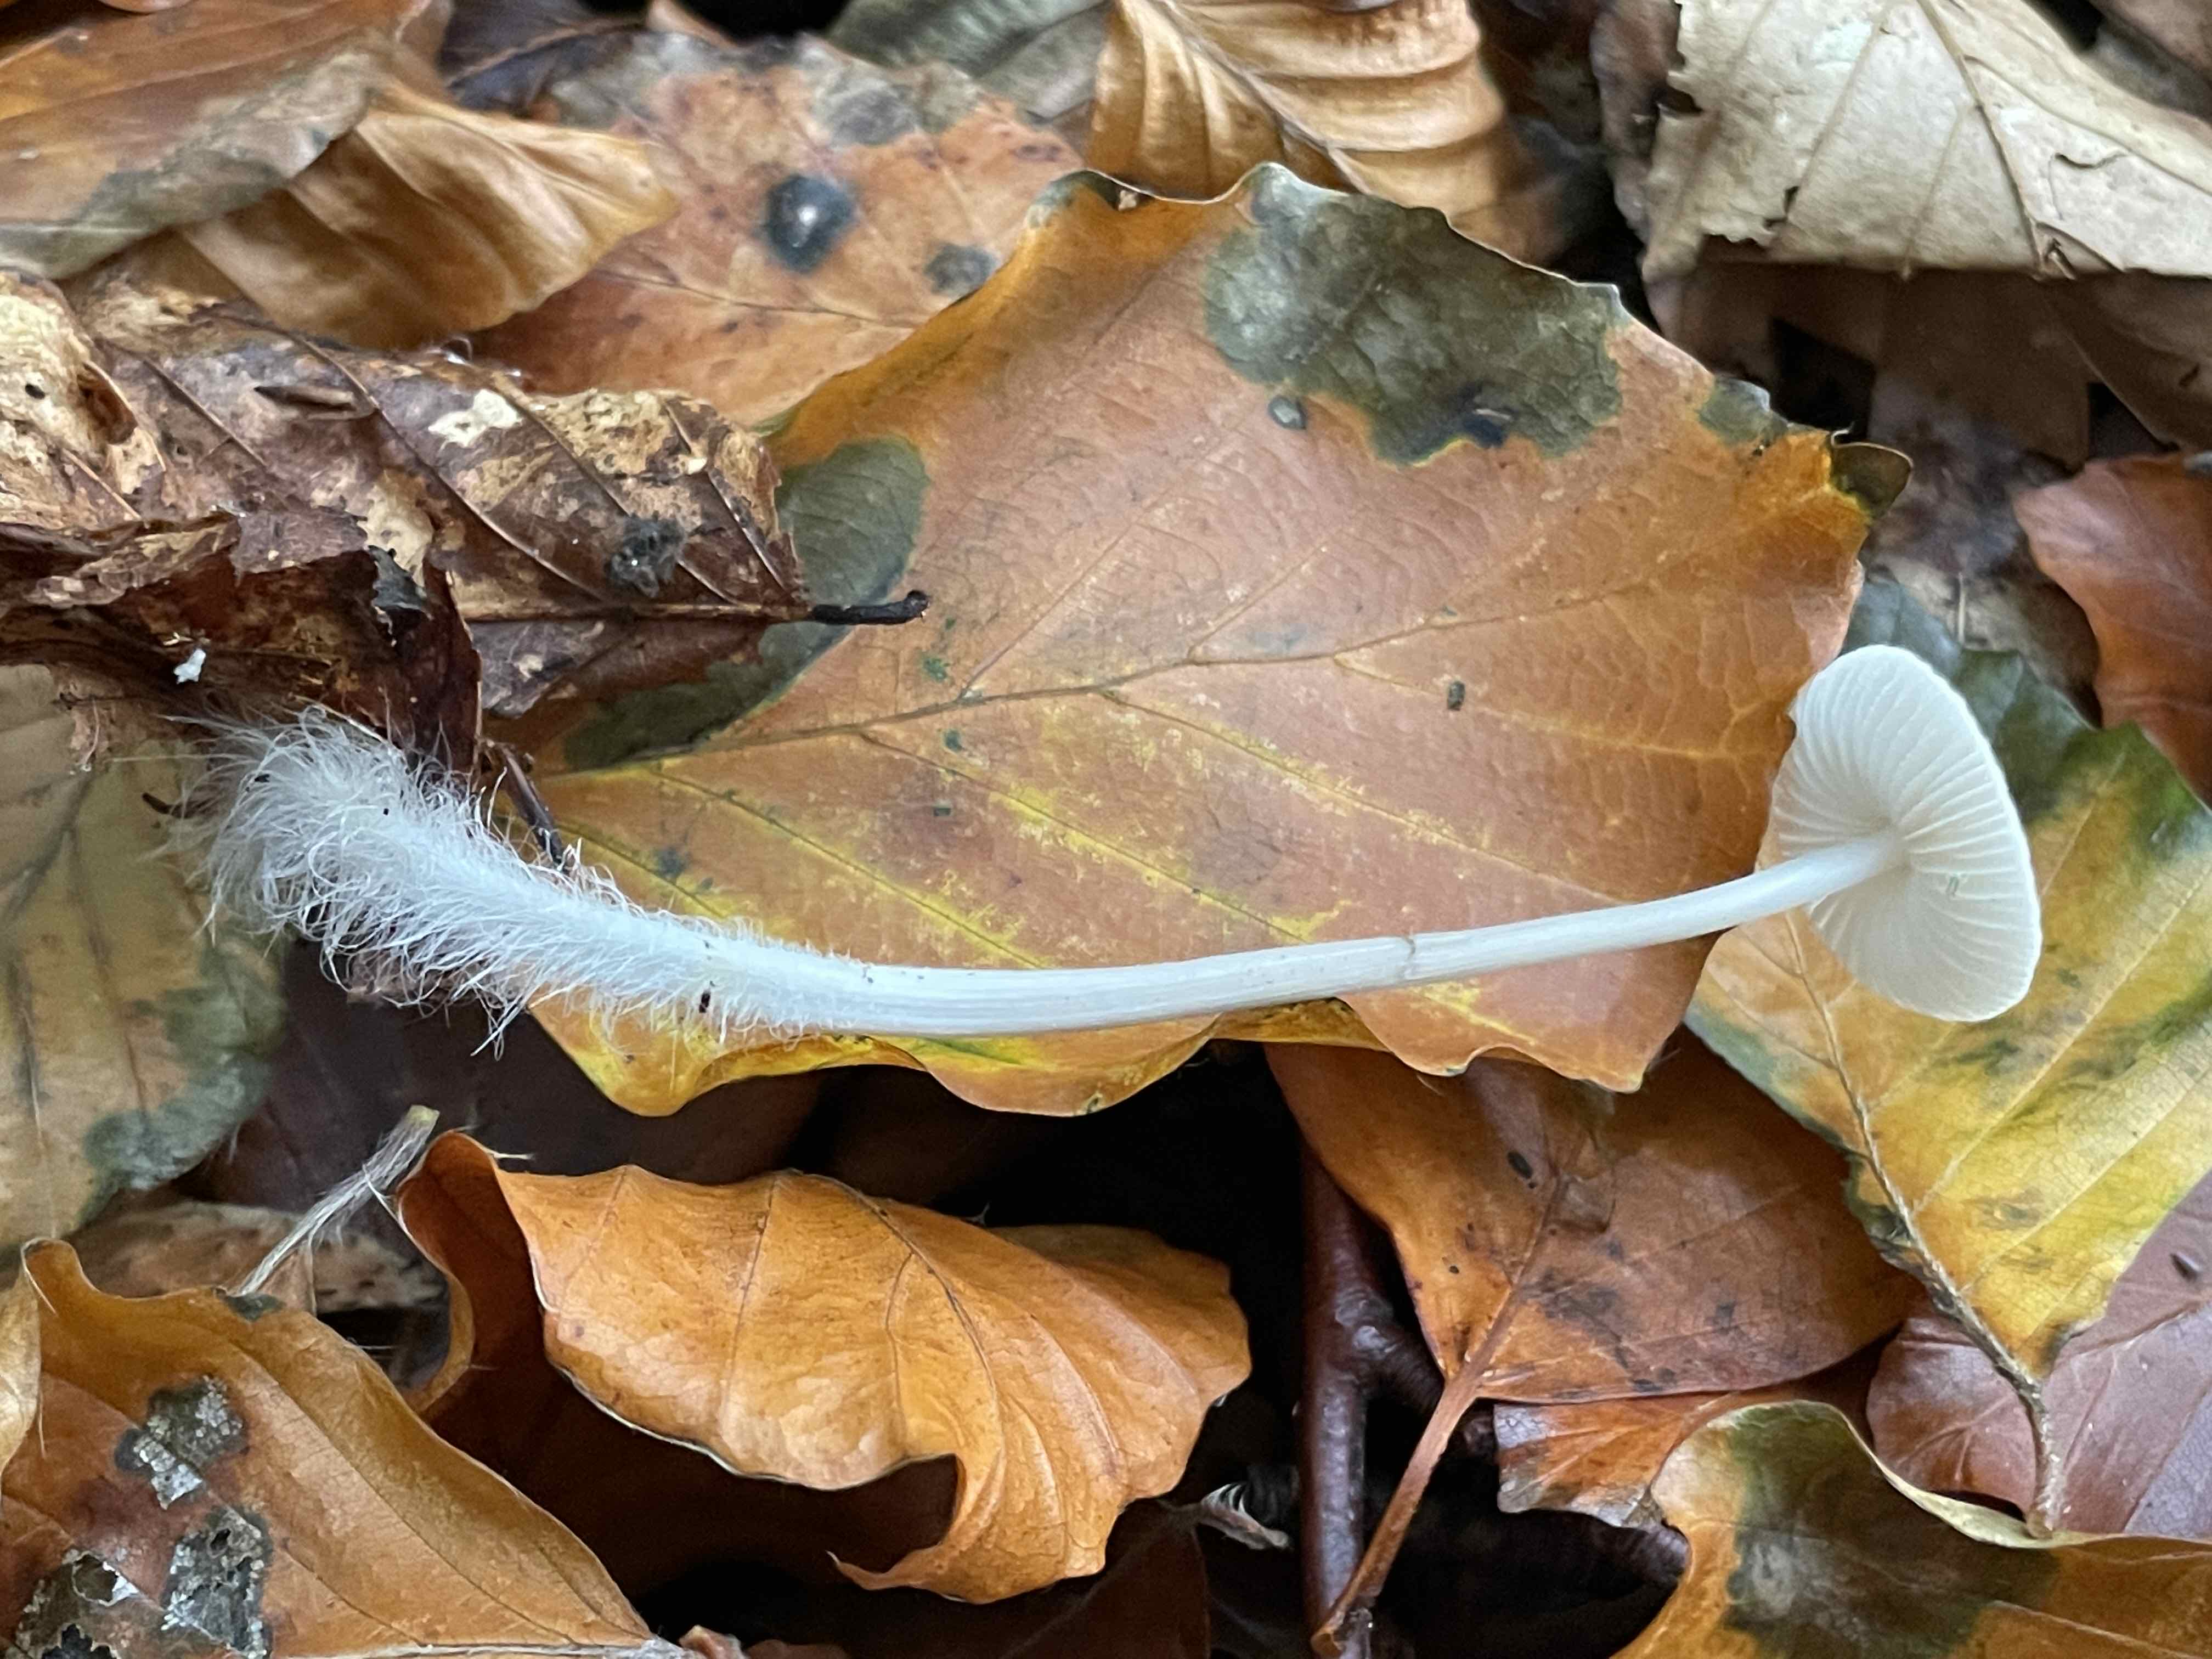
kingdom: Fungi
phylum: Basidiomycota
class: Agaricomycetes
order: Agaricales
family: Mycenaceae
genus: Mycena
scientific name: Mycena polygramma
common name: mangestribet huesvamp
